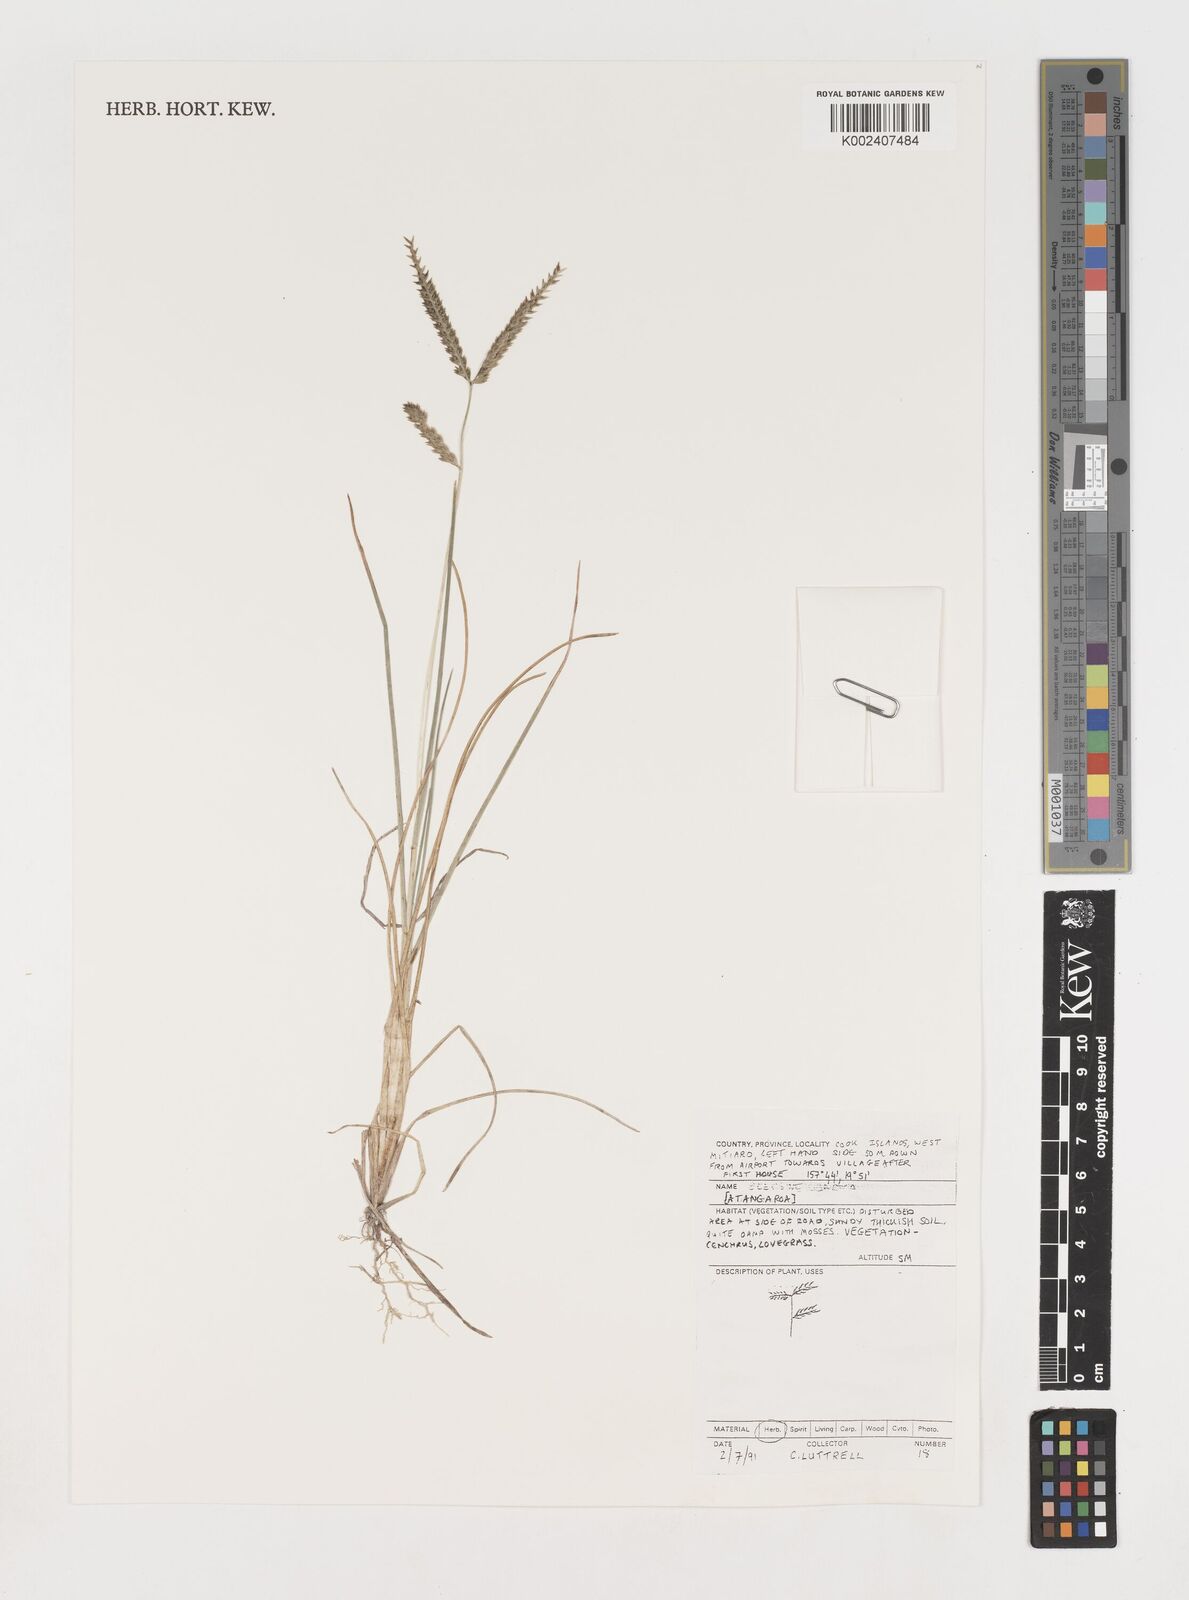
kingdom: Plantae
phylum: Tracheophyta
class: Liliopsida
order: Poales
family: Poaceae
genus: Eleusine
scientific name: Eleusine indica
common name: Yard-grass
